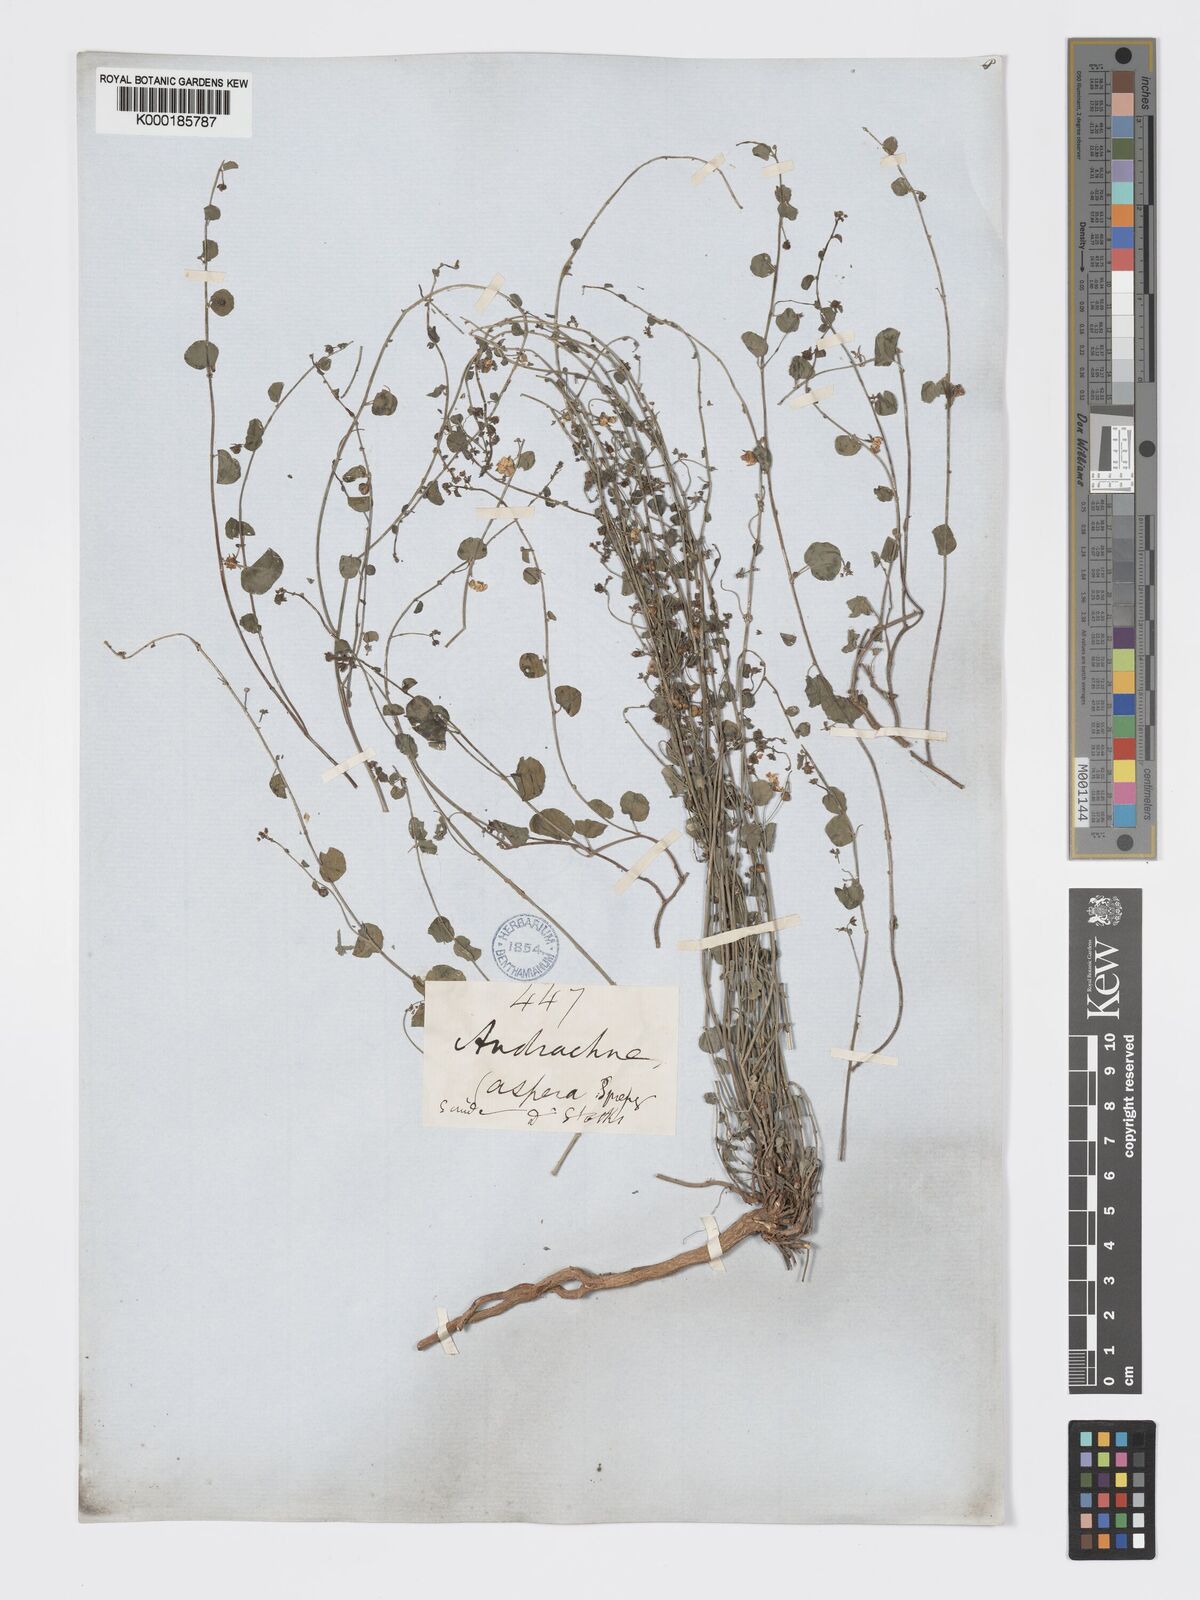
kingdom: Plantae
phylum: Tracheophyta
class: Magnoliopsida
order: Malpighiales
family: Phyllanthaceae
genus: Andrachne
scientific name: Andrachne aspera
